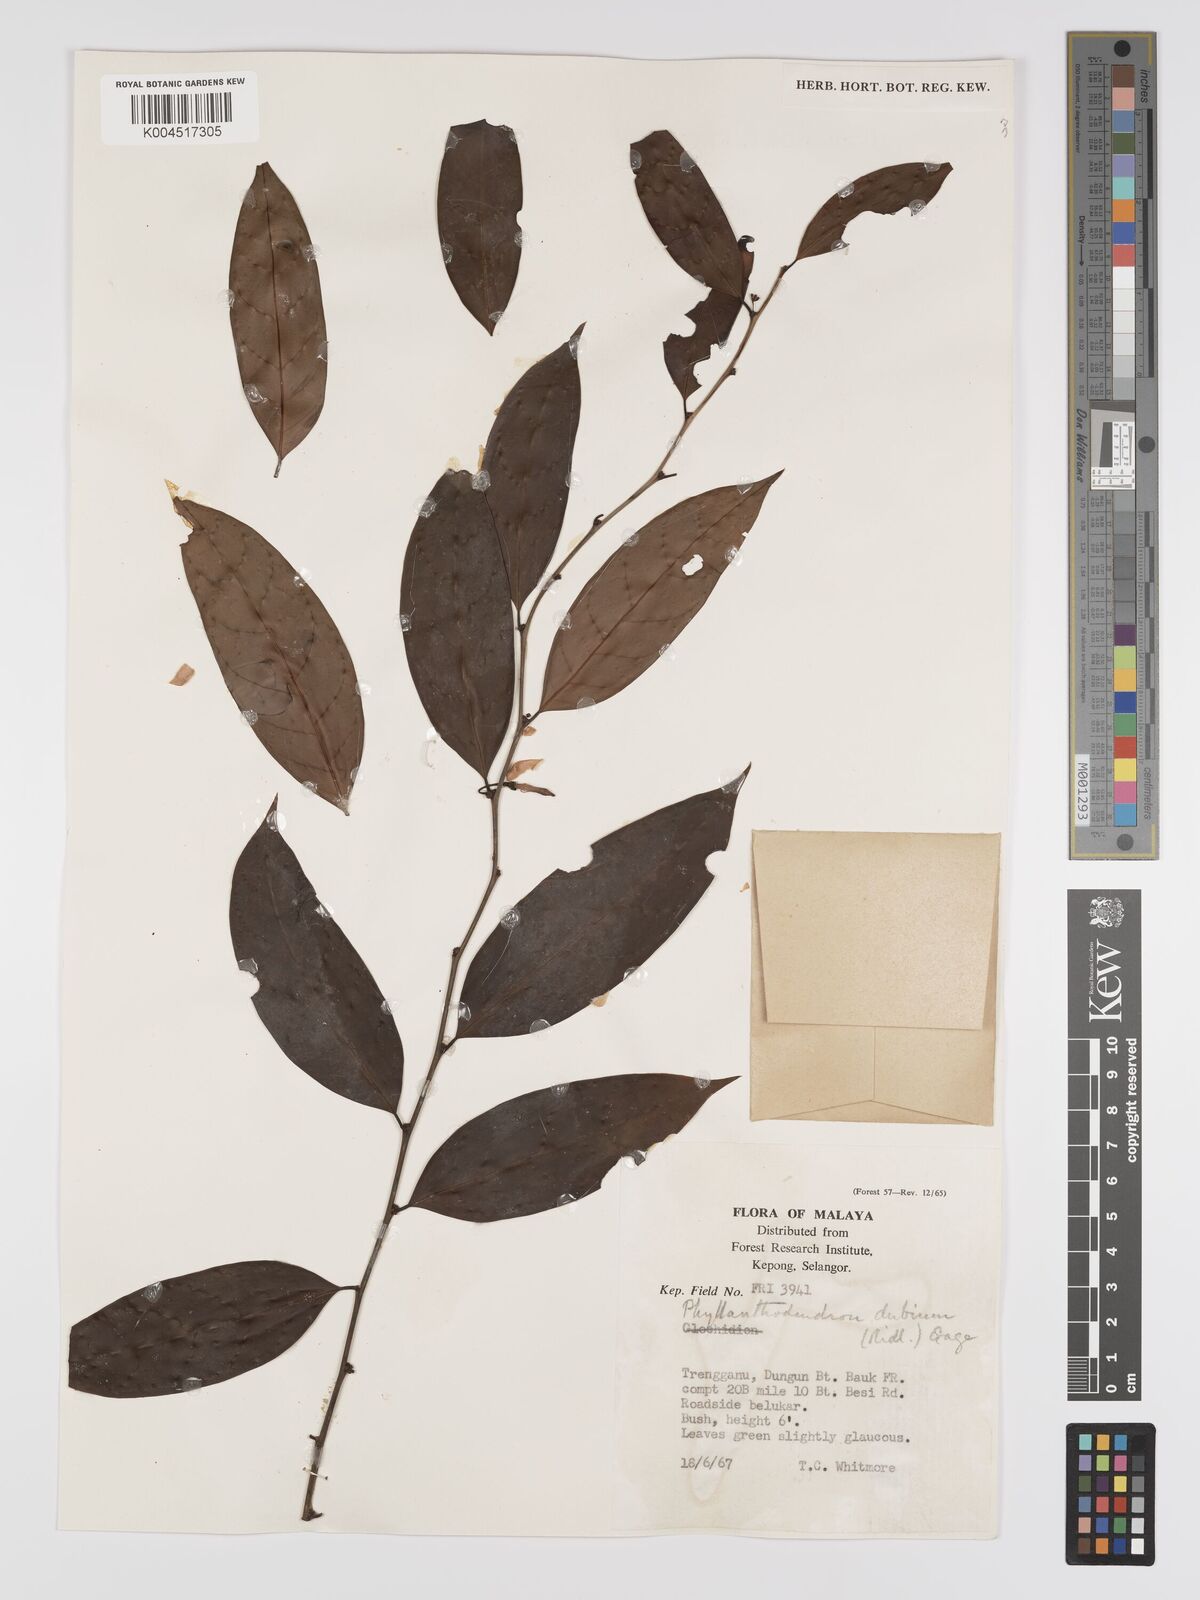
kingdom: Plantae
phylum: Tracheophyta
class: Magnoliopsida
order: Malpighiales
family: Phyllanthaceae
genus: Phyllanthus
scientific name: Phyllanthus roseus
